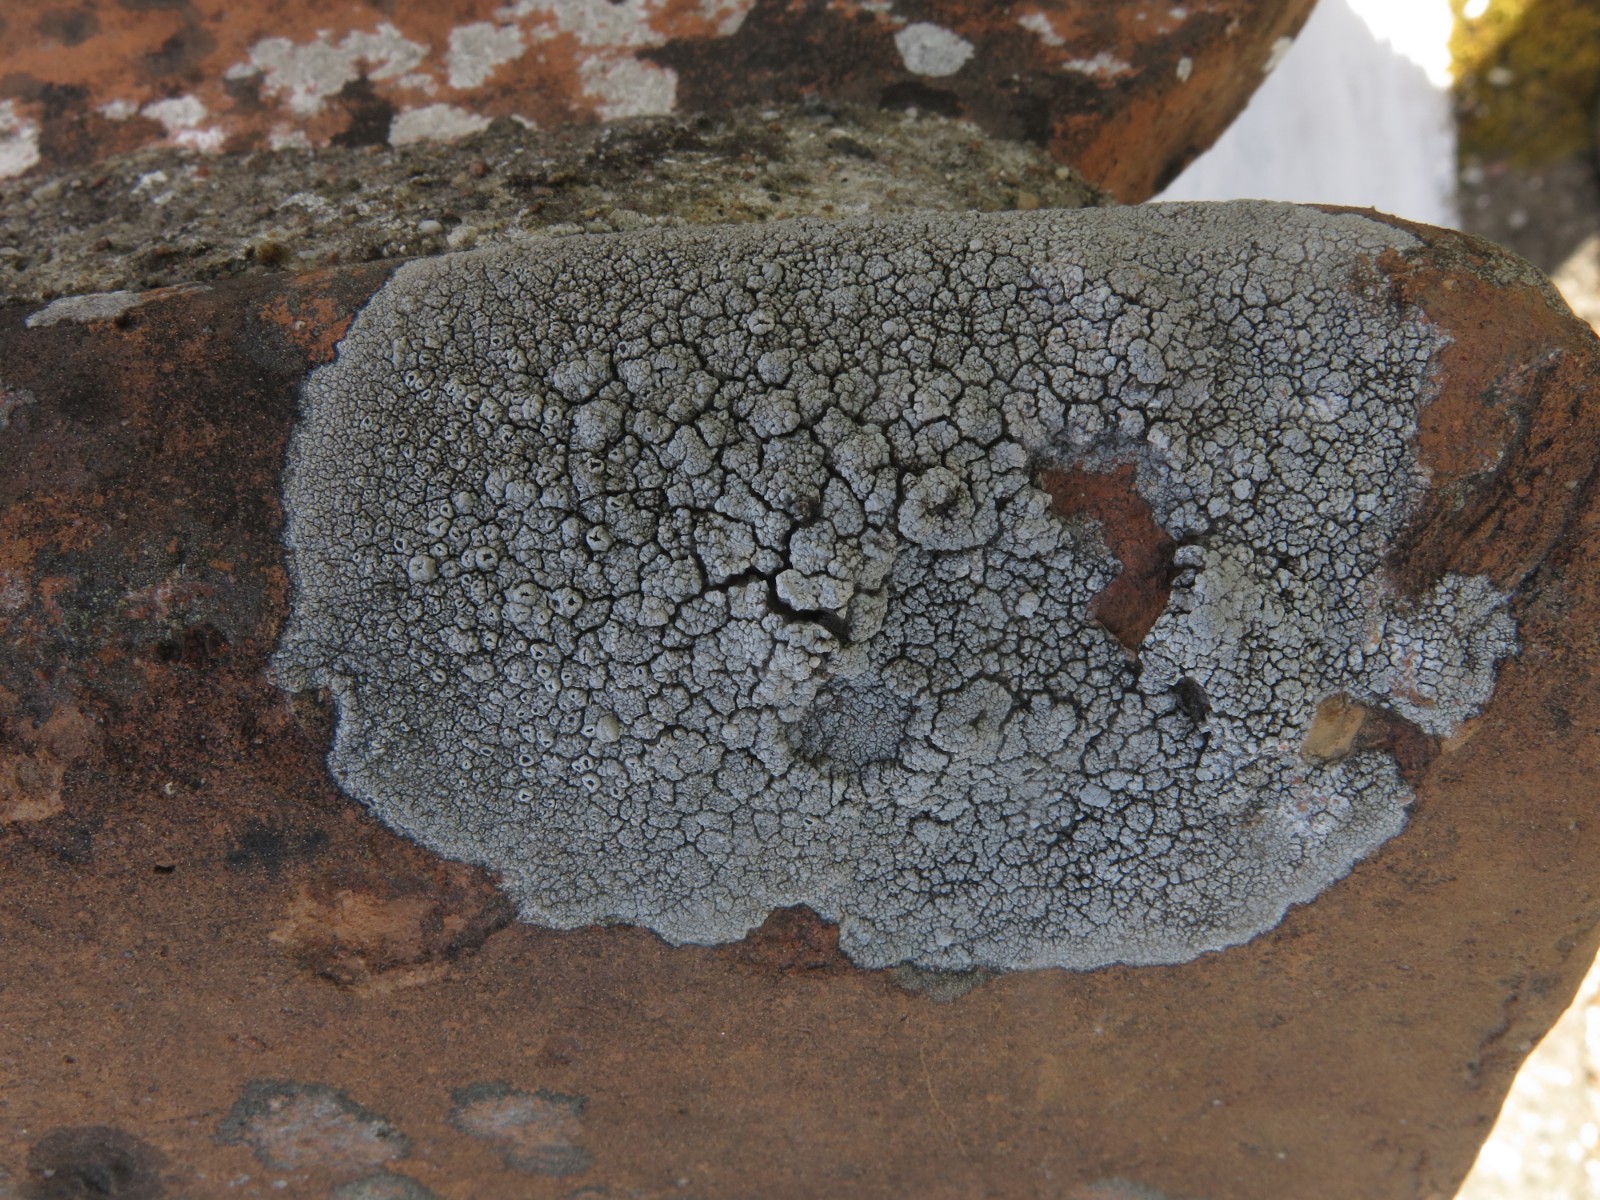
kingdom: Fungi
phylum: Ascomycota
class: Lecanoromycetes
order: Lecanorales
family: Tephromelataceae
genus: Tephromela
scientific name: Tephromela atra
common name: sortfrugtet kantskivelav
